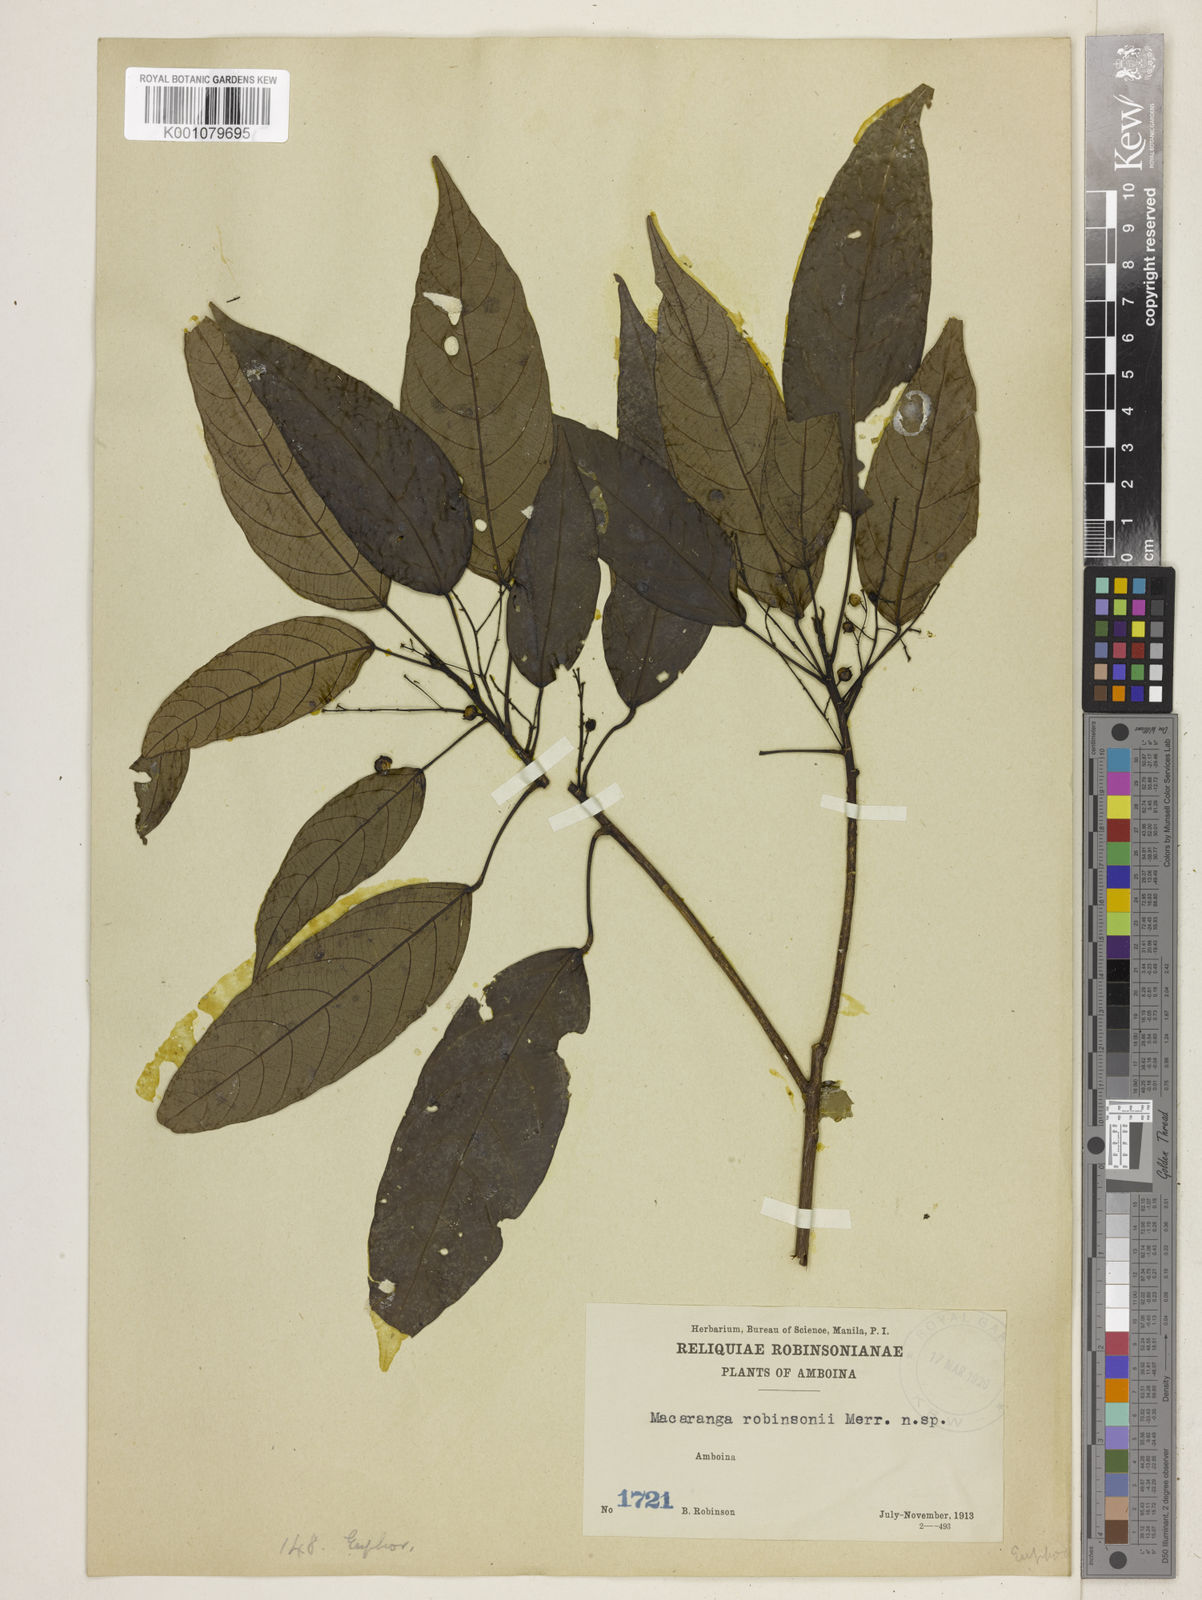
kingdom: Plantae
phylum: Tracheophyta
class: Magnoliopsida
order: Malpighiales
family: Euphorbiaceae
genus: Macaranga
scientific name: Macaranga robinsonii
